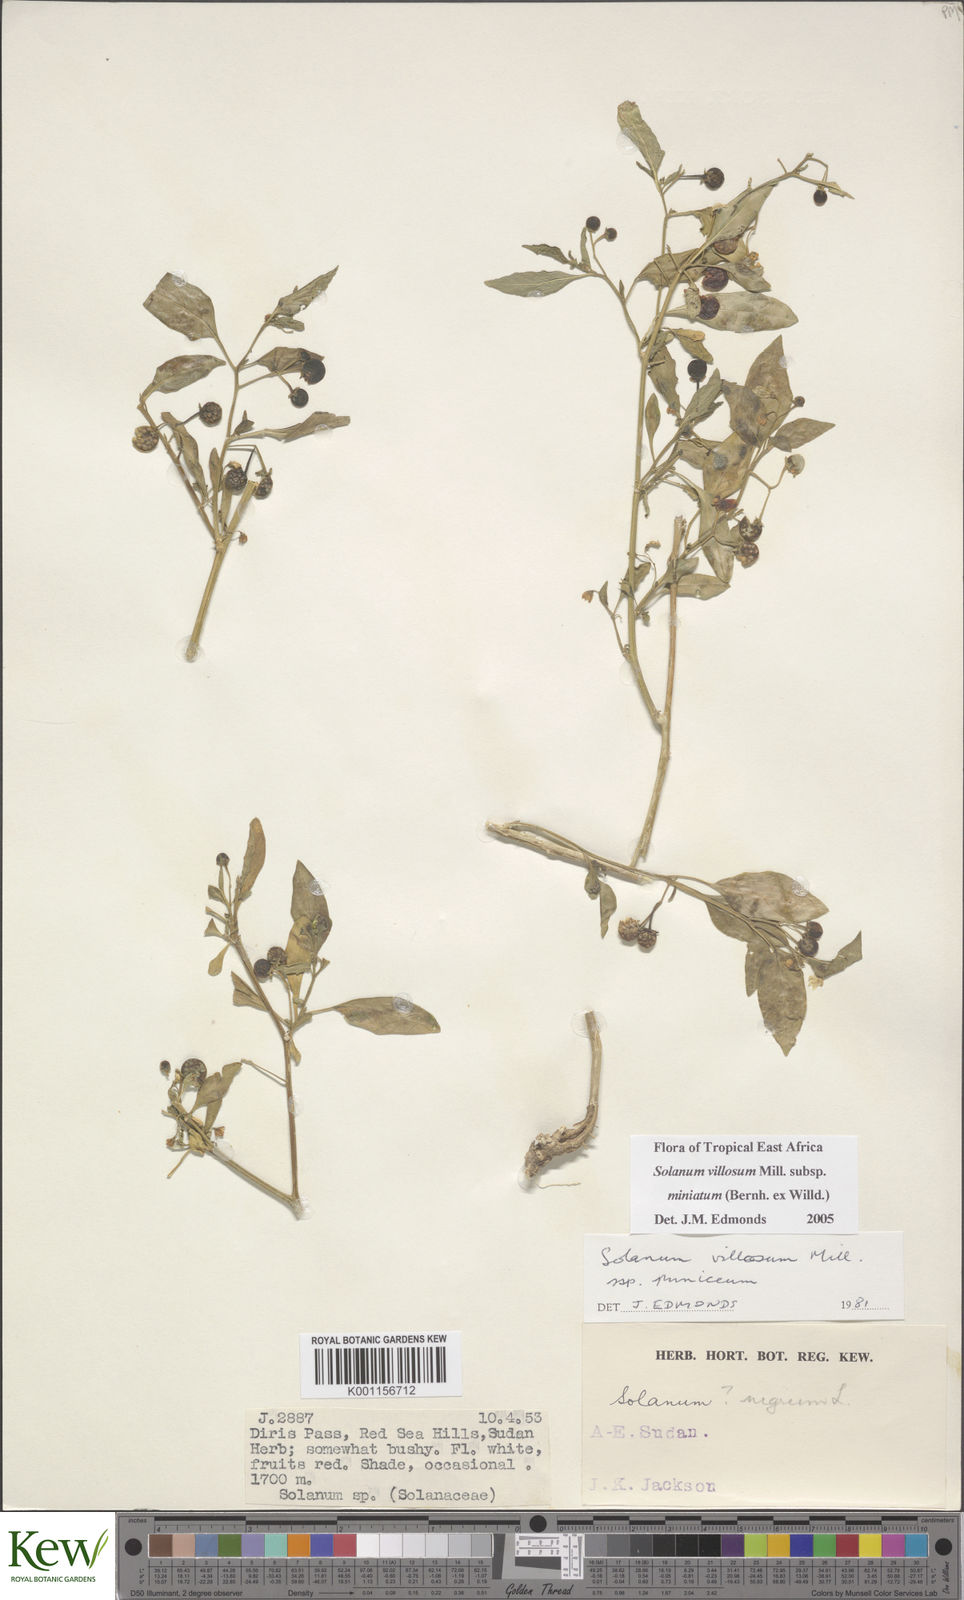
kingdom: Plantae
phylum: Tracheophyta
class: Magnoliopsida
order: Solanales
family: Solanaceae
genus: Solanum
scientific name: Solanum villosum
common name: Red nightshade
